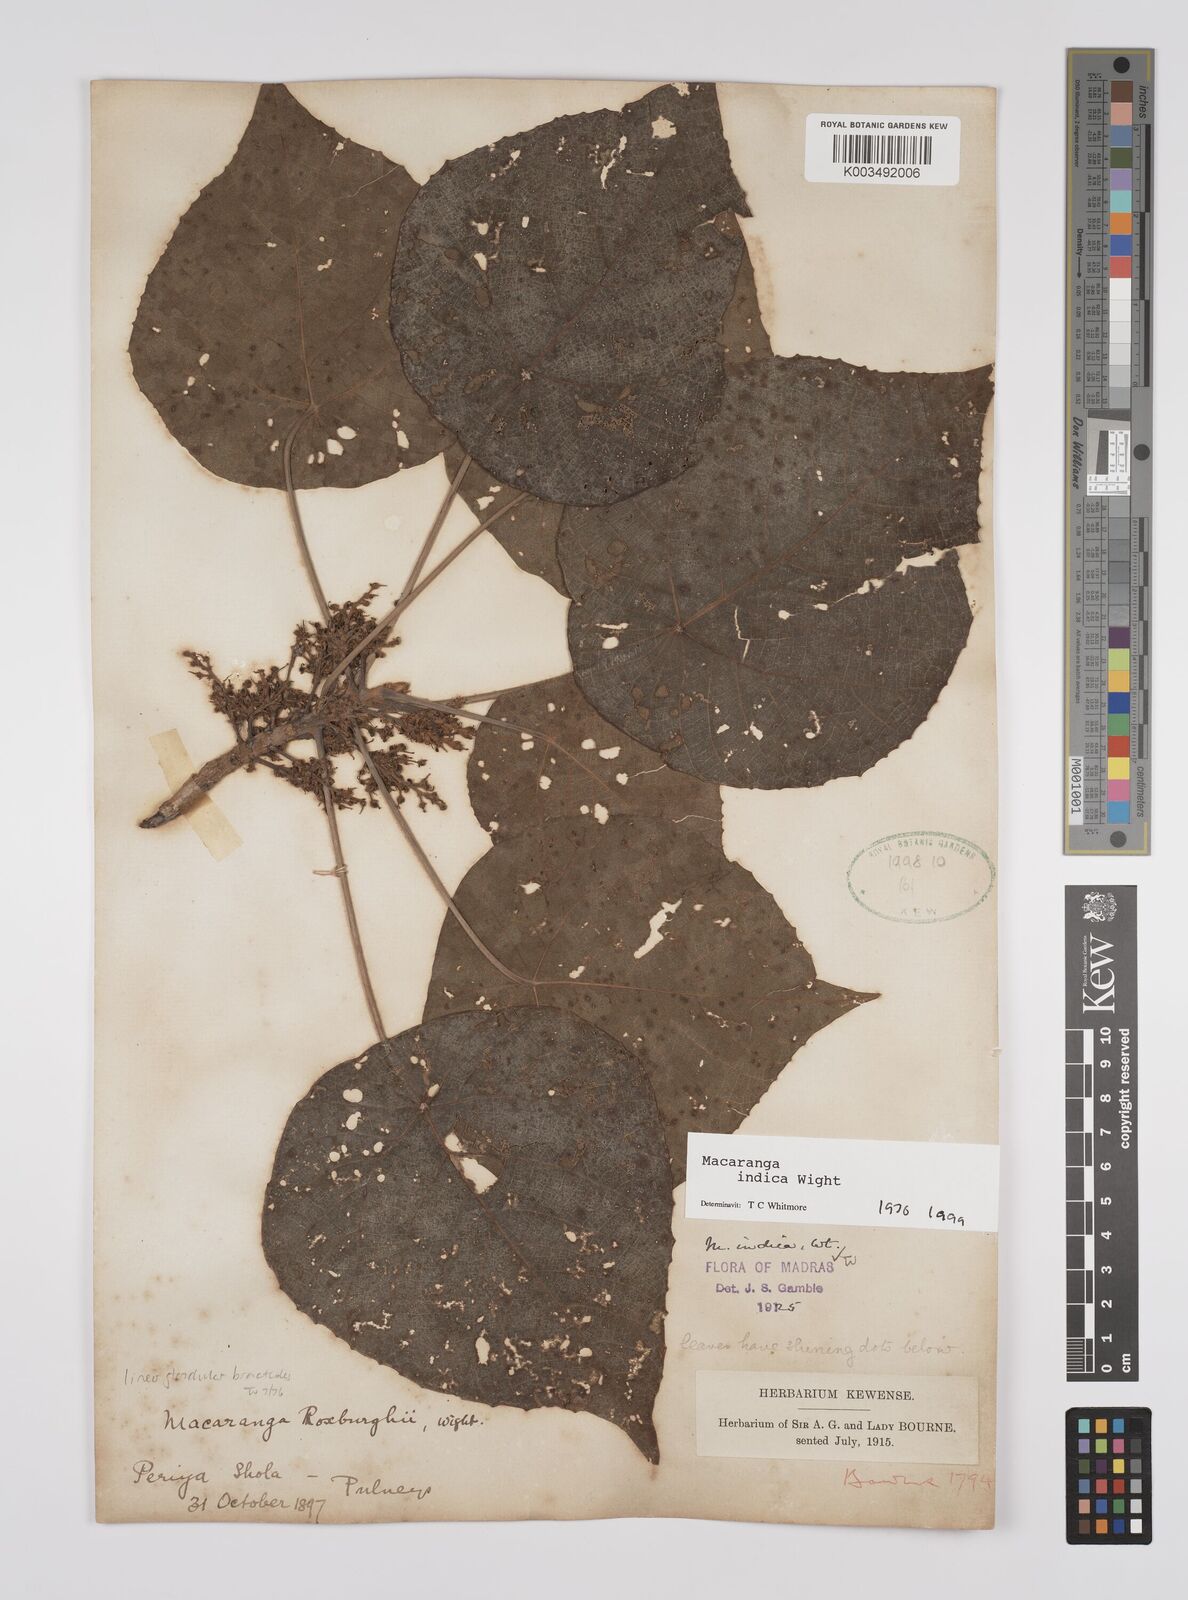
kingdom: Plantae
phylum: Tracheophyta
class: Magnoliopsida
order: Malpighiales
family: Euphorbiaceae
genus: Macaranga
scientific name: Macaranga indica
